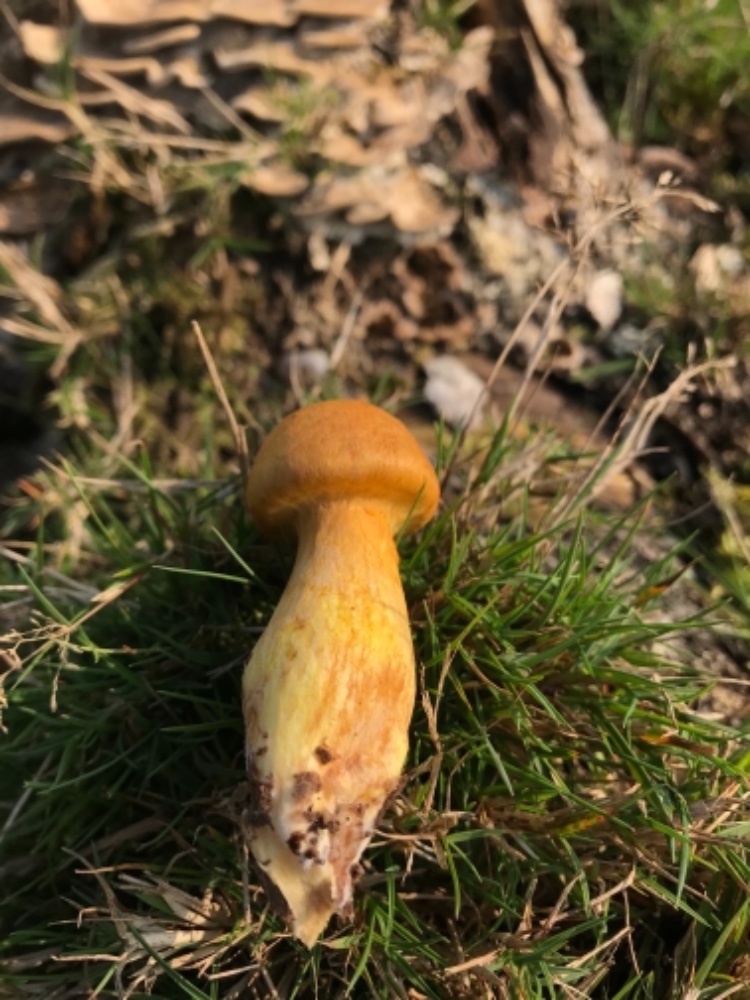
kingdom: Fungi
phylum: Basidiomycota
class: Agaricomycetes
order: Agaricales
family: Hymenogastraceae
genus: Gymnopilus
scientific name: Gymnopilus spectabilis
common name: fibret flammehat
